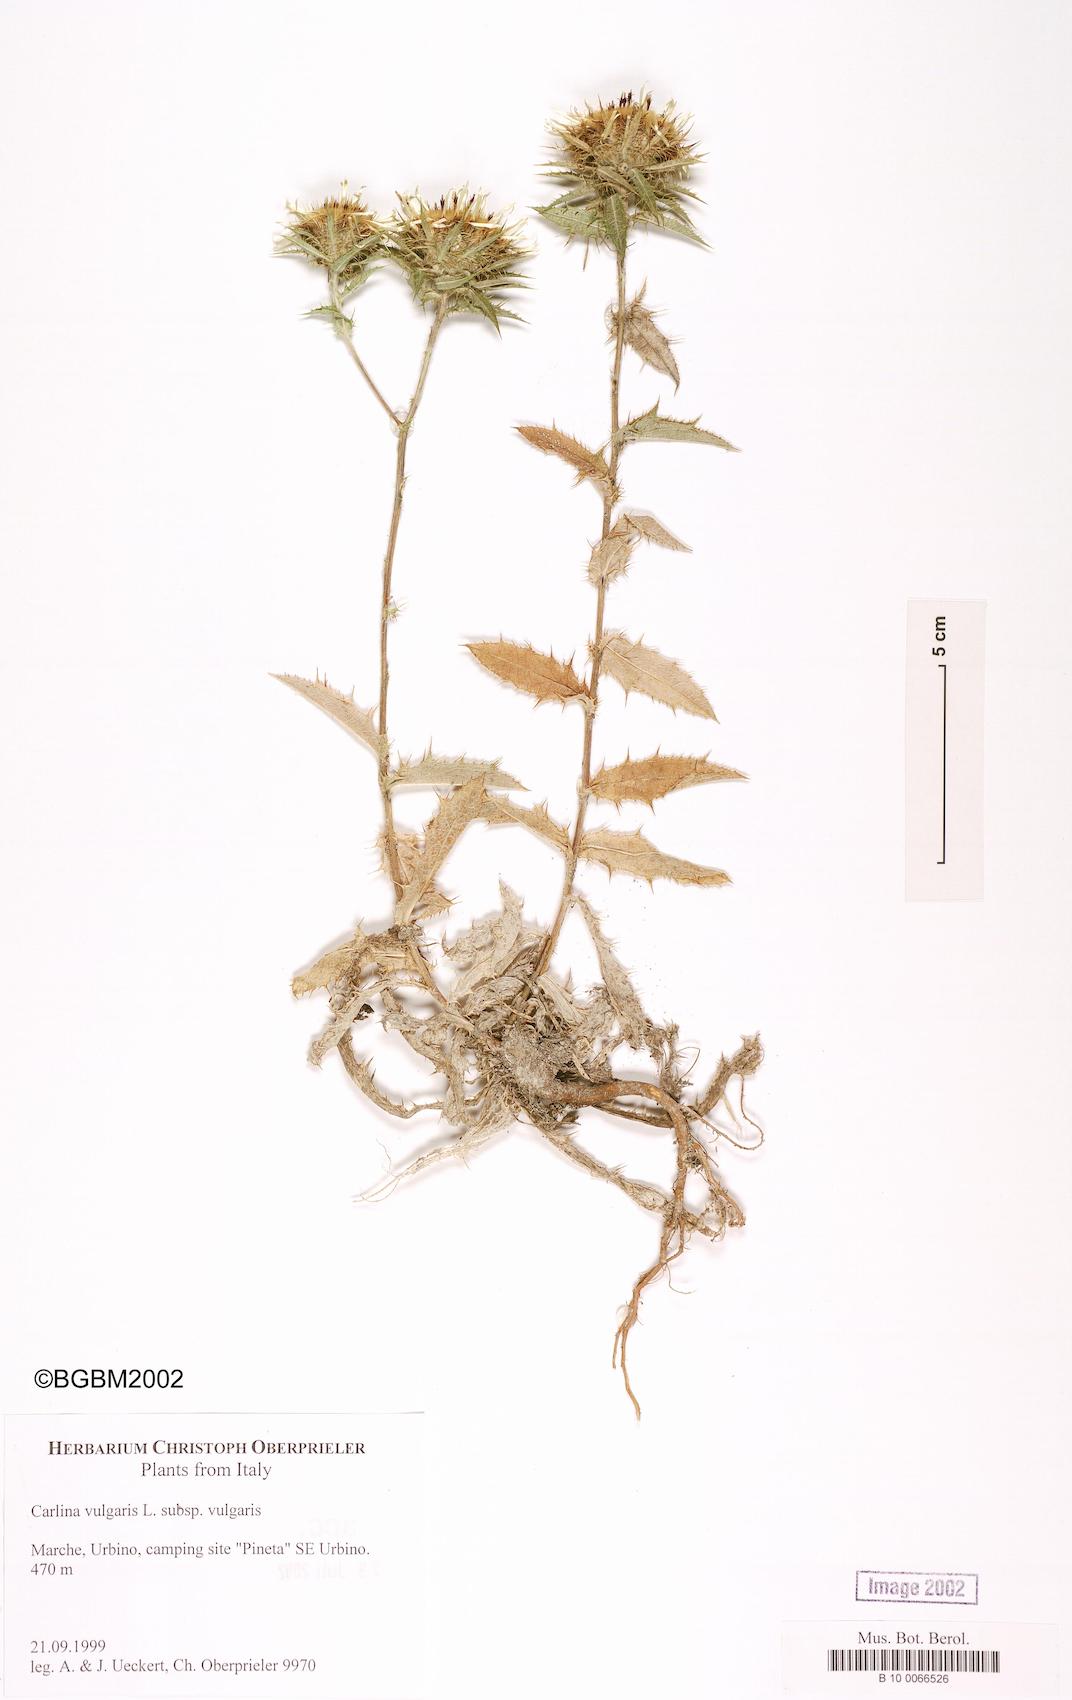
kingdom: Plantae
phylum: Tracheophyta
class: Magnoliopsida
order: Asterales
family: Asteraceae
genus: Carlina
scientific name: Carlina vulgaris
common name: Carline thistle
